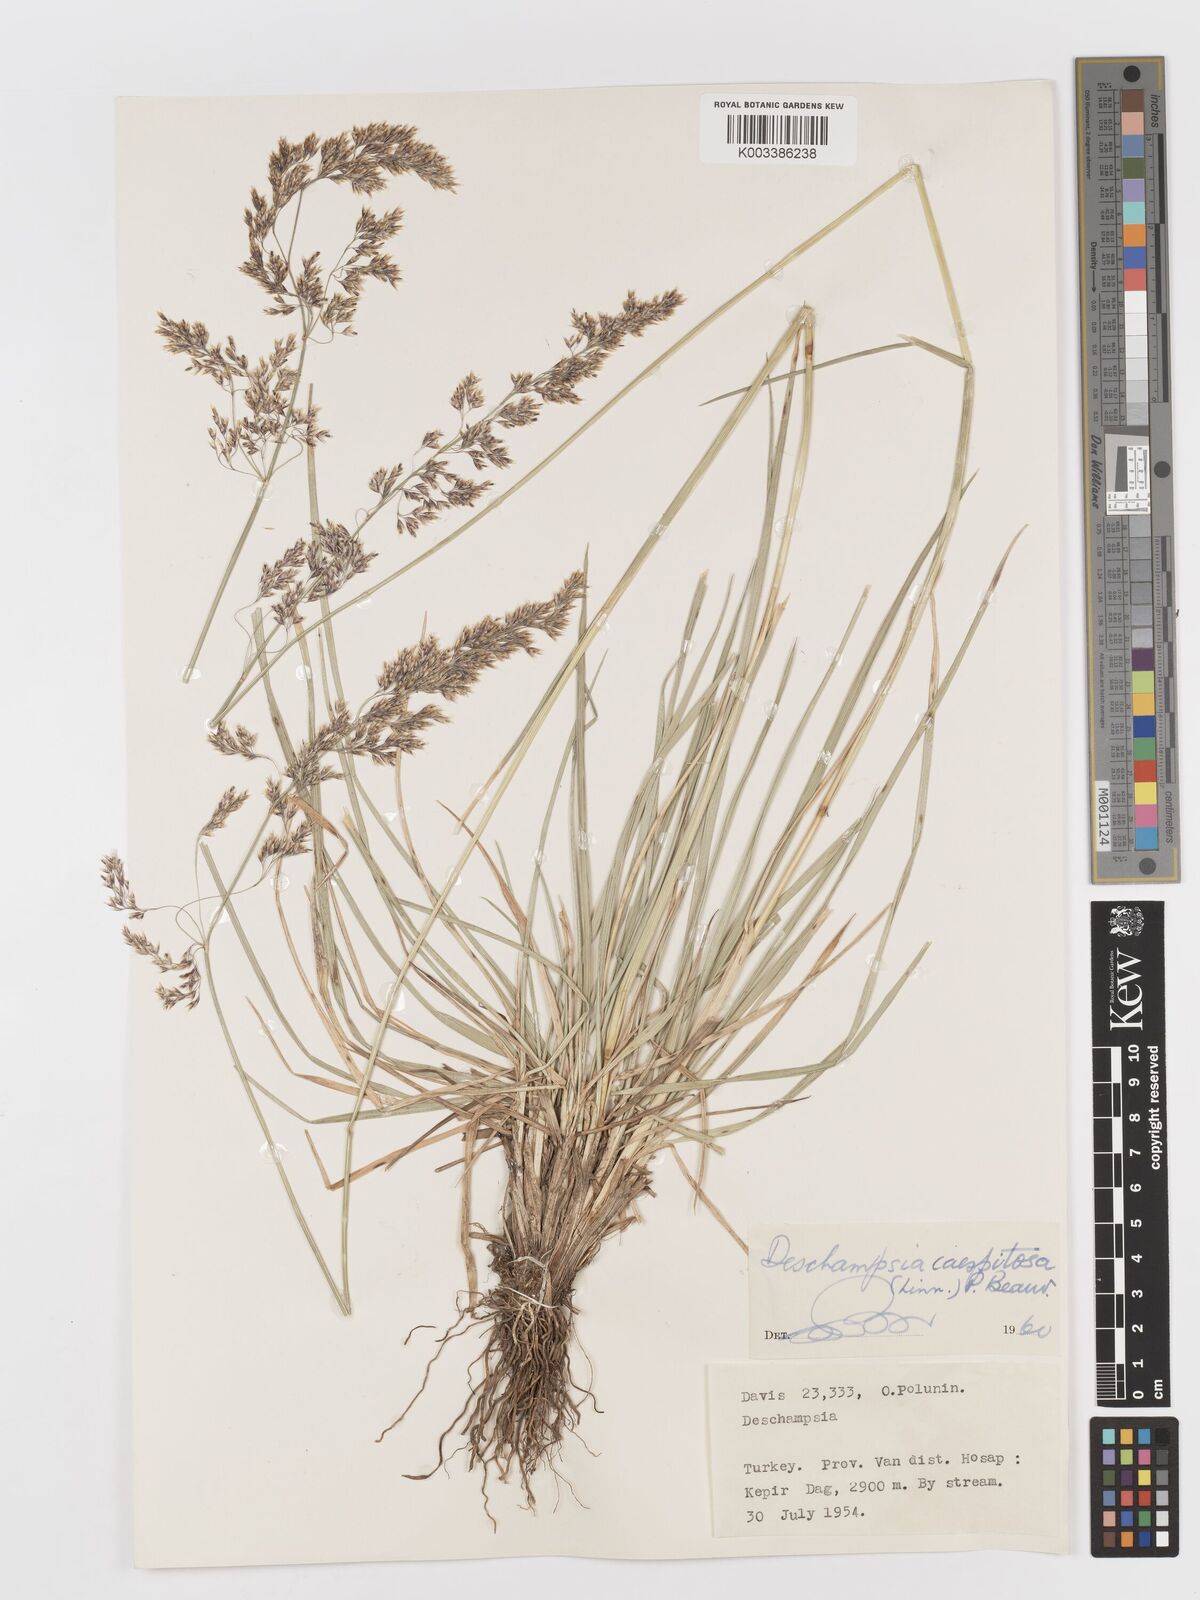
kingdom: Plantae
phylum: Tracheophyta
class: Liliopsida
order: Poales
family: Poaceae
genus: Deschampsia
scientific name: Deschampsia cespitosa
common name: Tufted hair-grass
